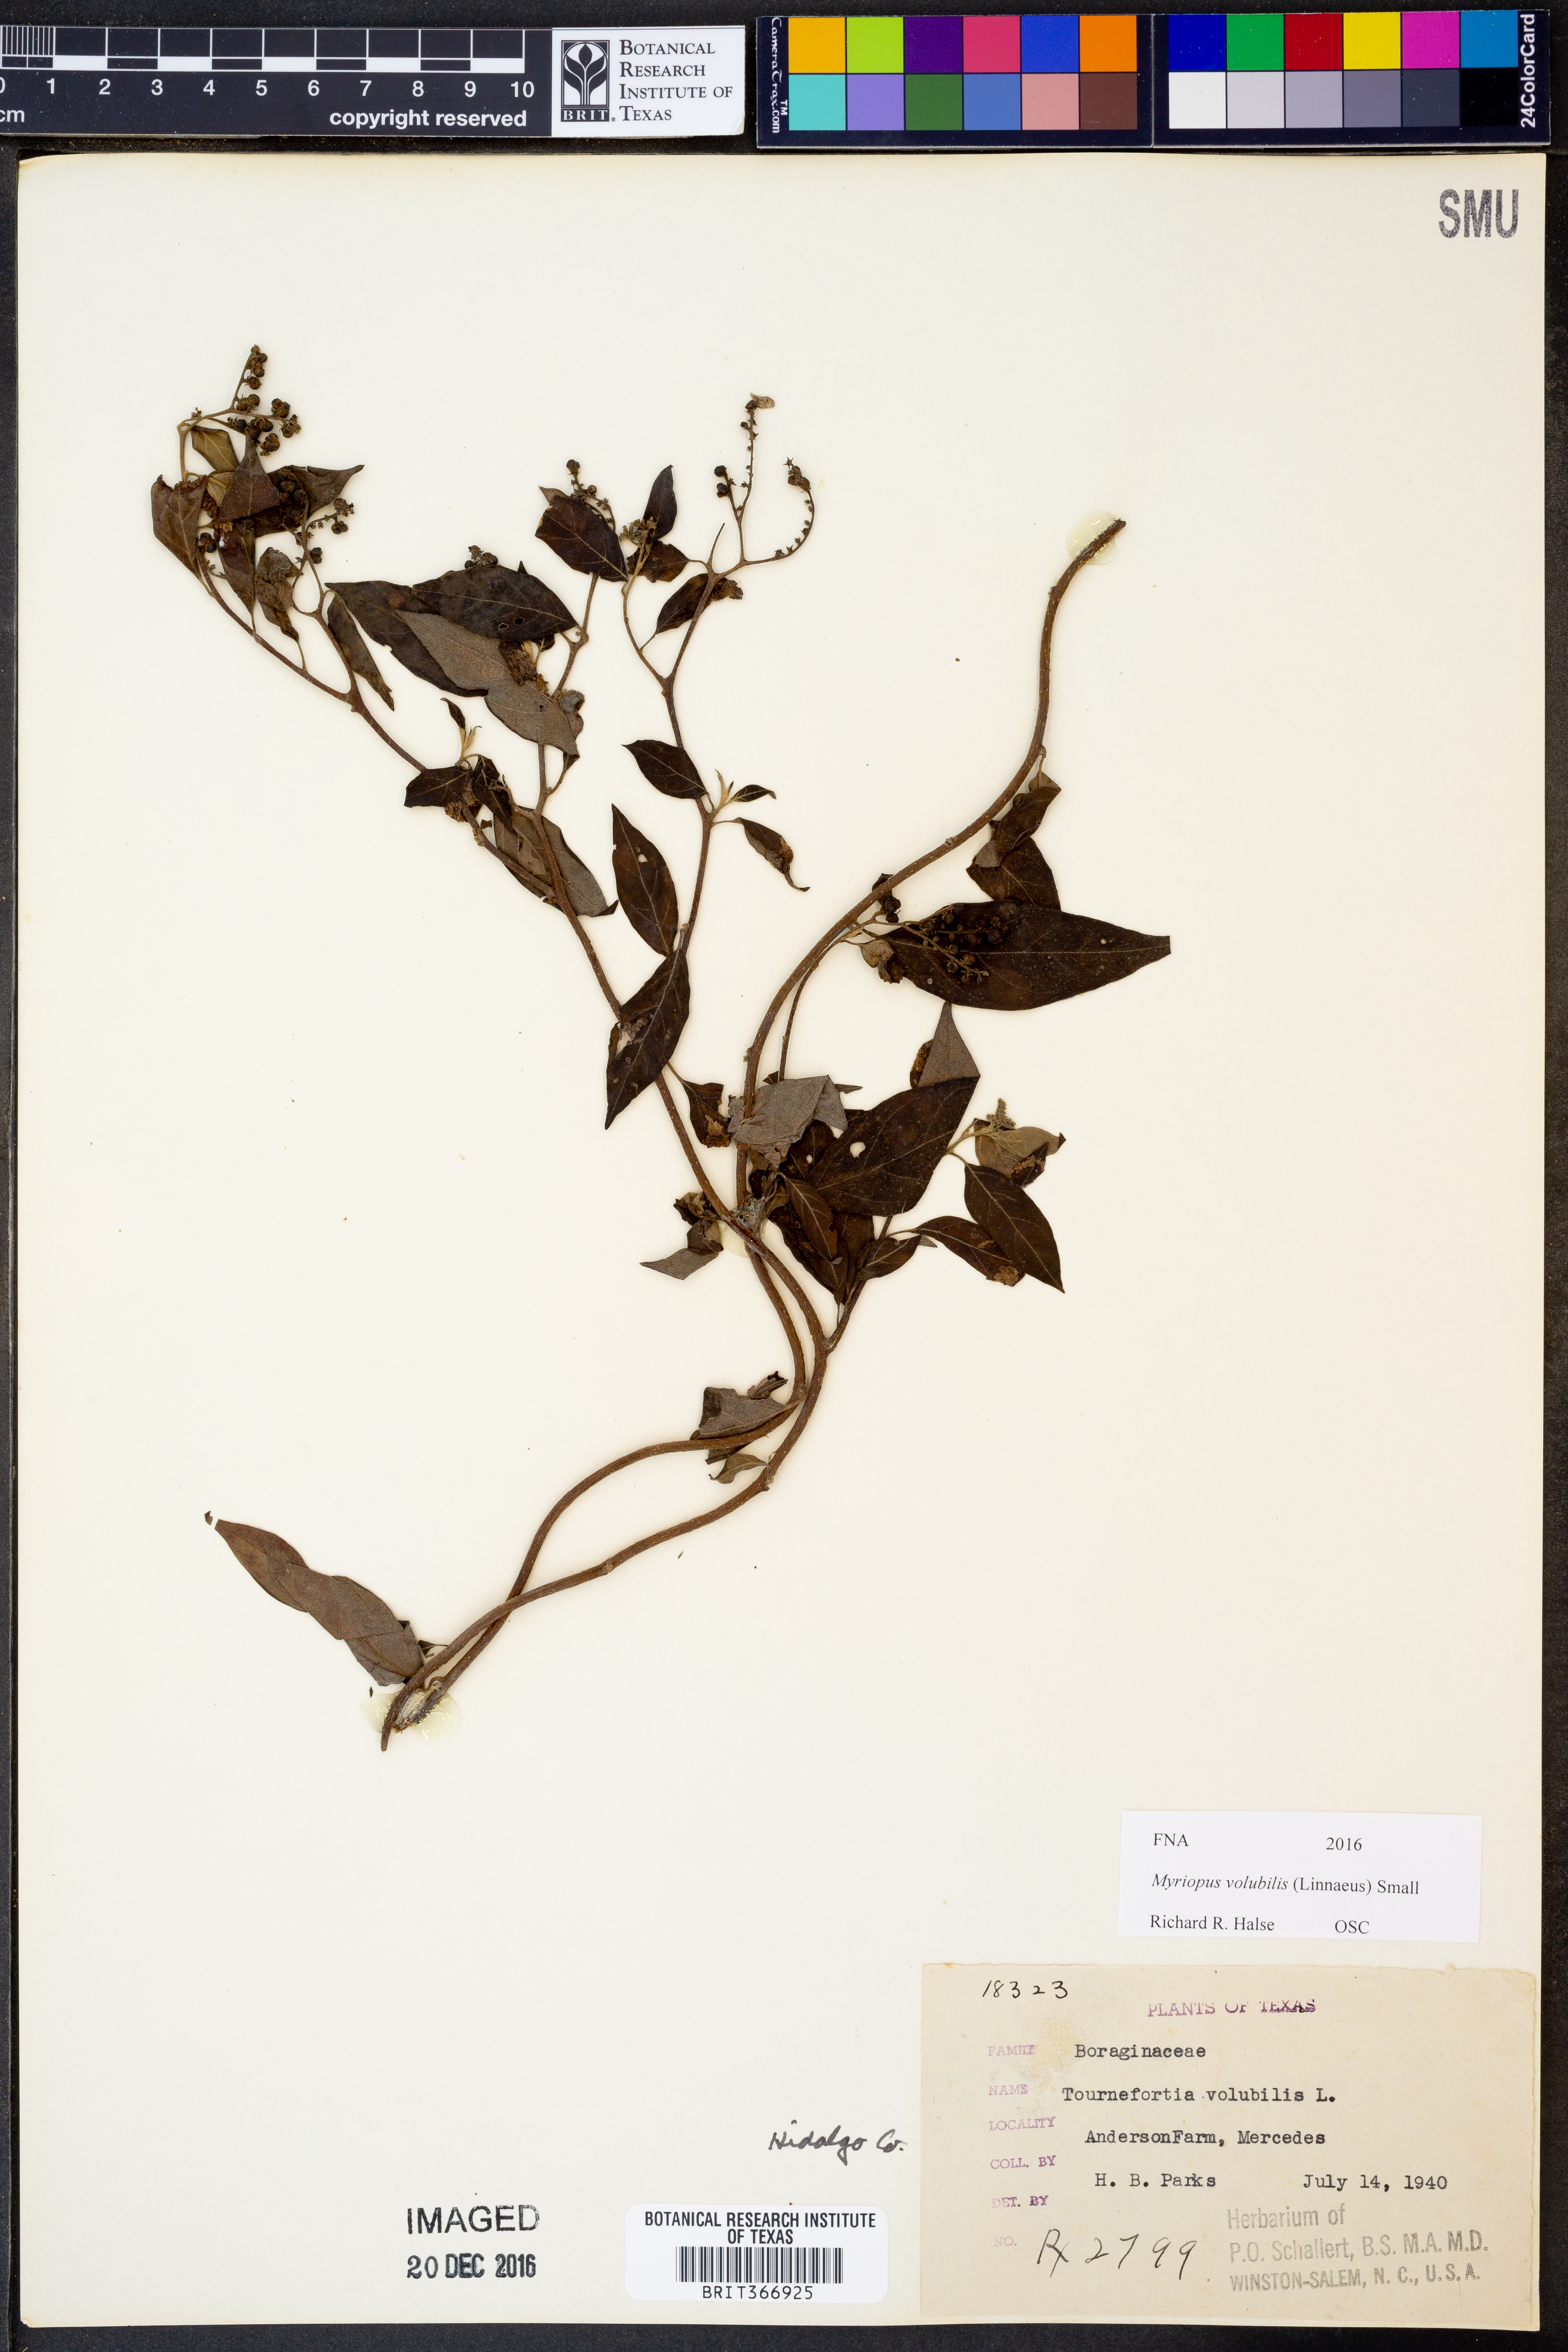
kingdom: Plantae
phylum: Tracheophyta
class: Magnoliopsida
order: Boraginales
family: Heliotropiaceae
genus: Myriopus
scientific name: Myriopus volubilis
